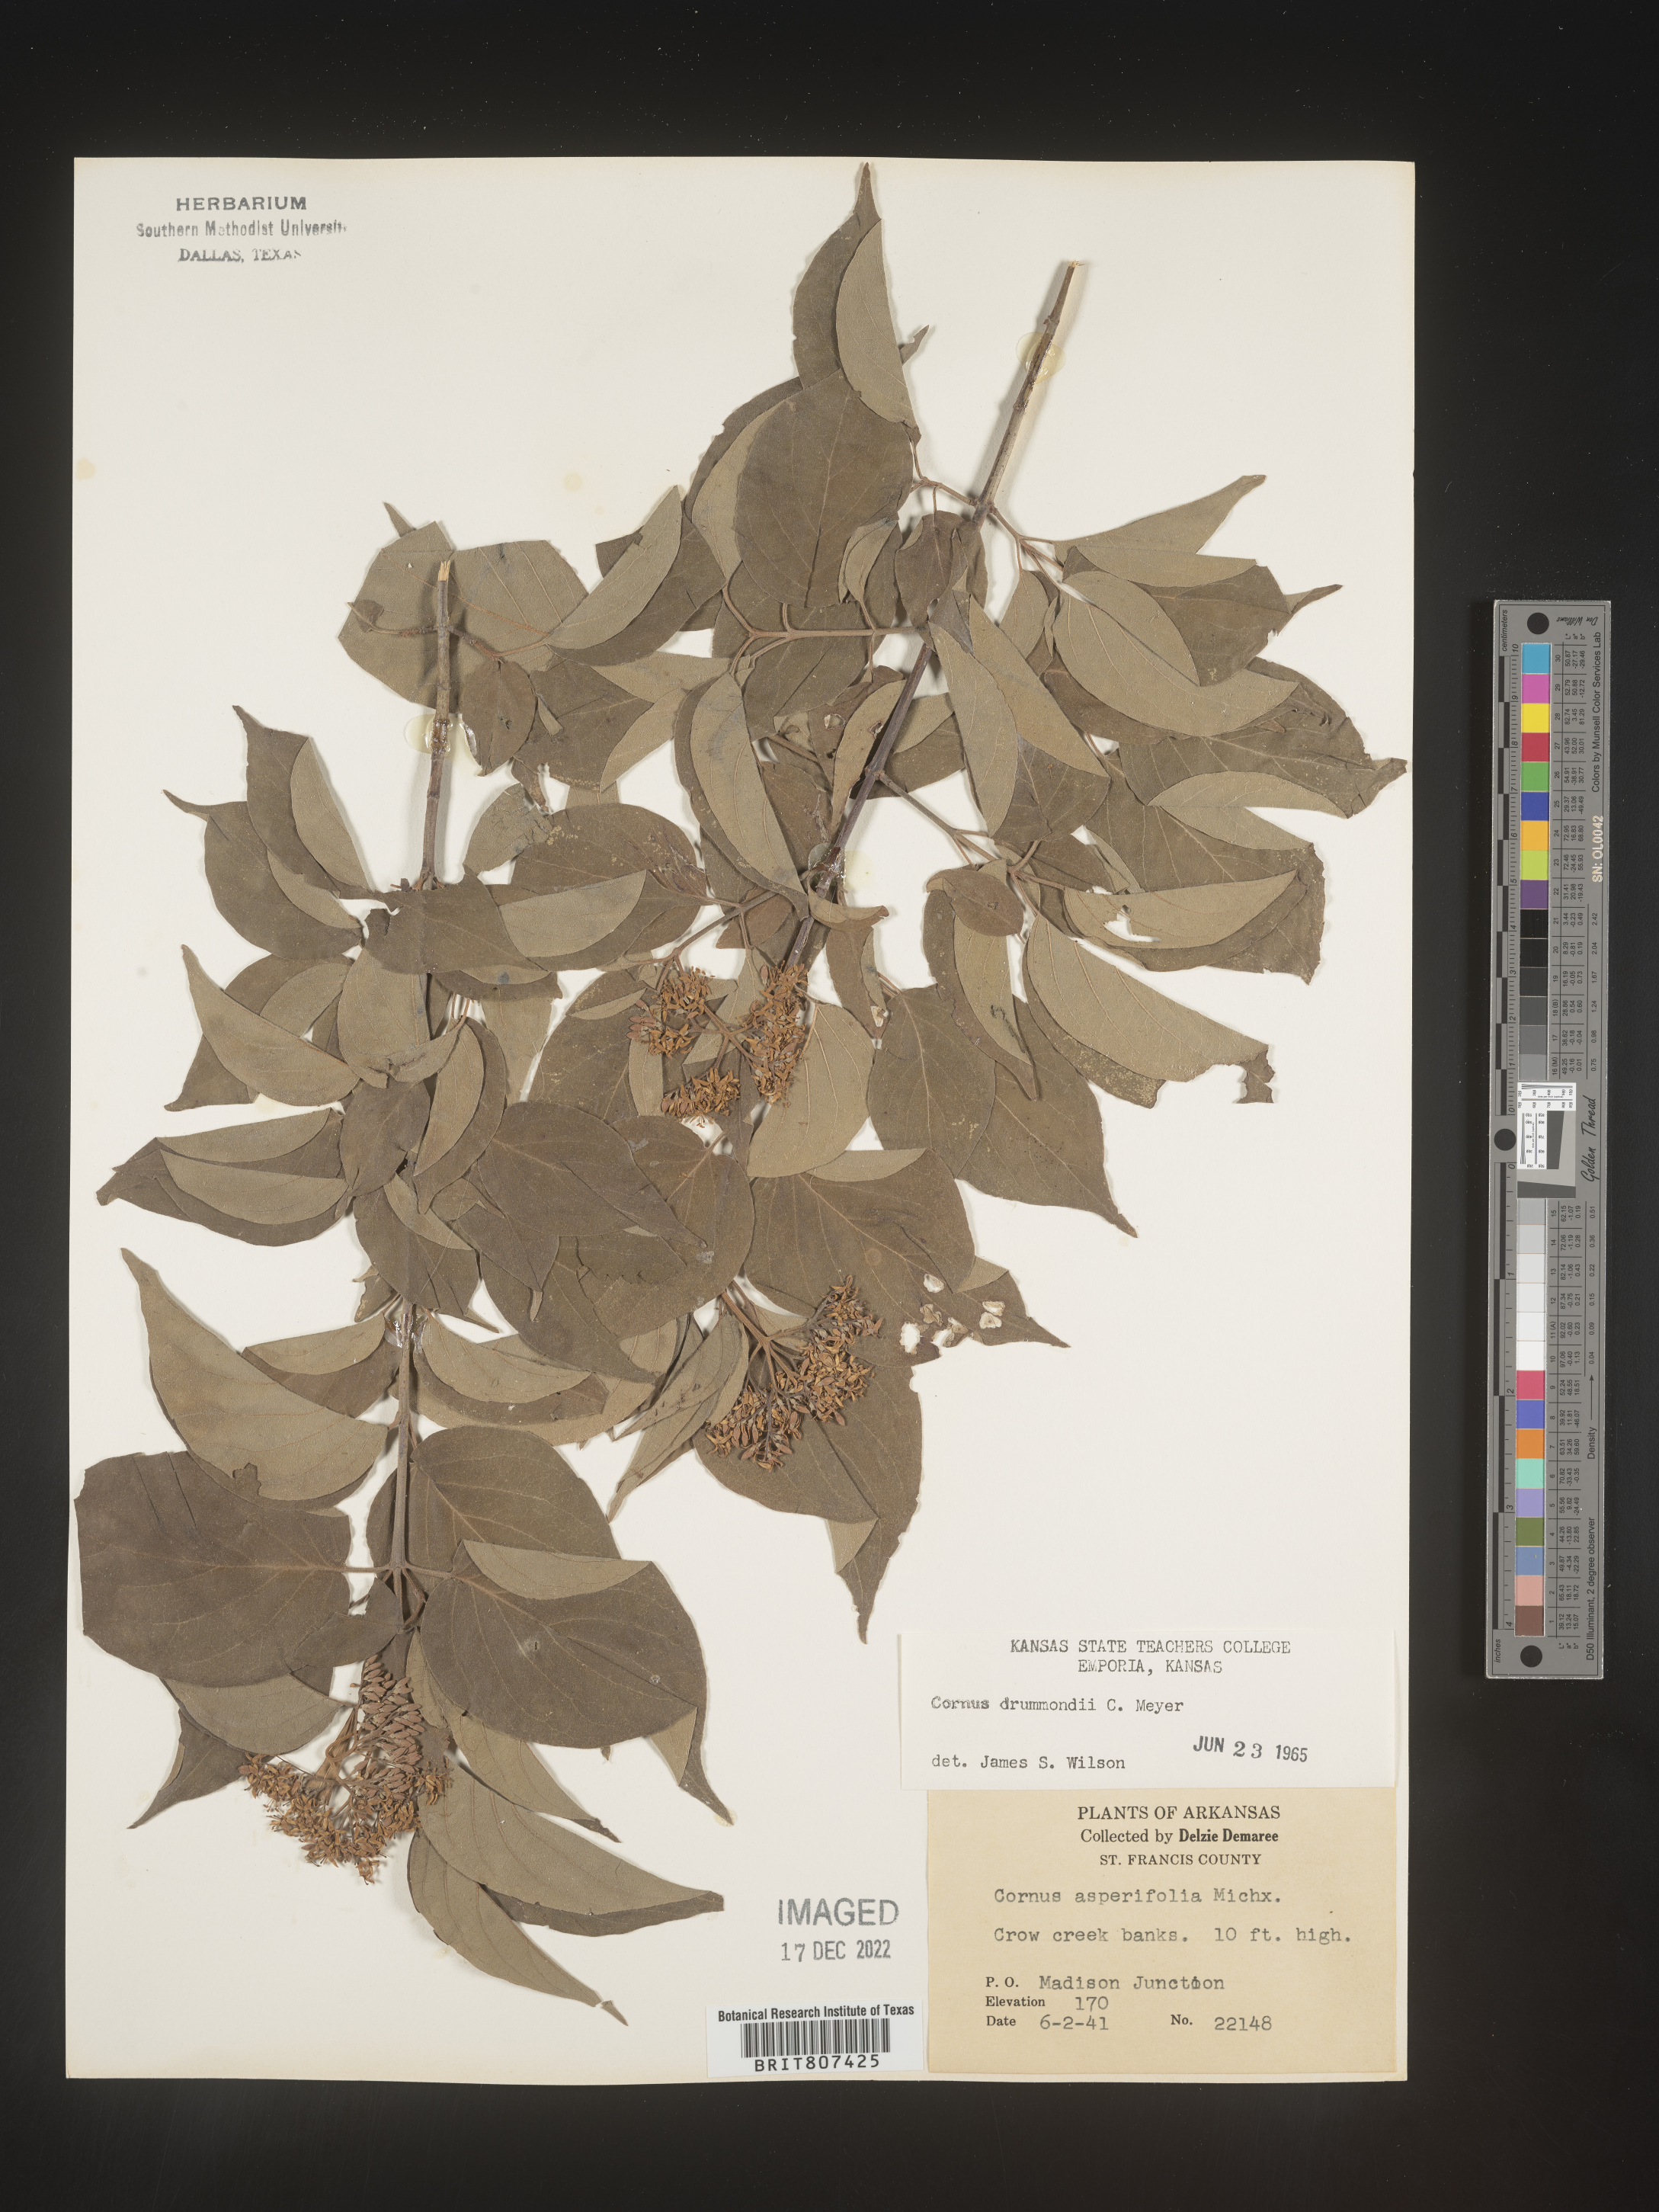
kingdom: Plantae
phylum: Tracheophyta
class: Magnoliopsida
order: Cornales
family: Cornaceae
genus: Cornus
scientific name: Cornus drummondii
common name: Rough-leaf dogwood
